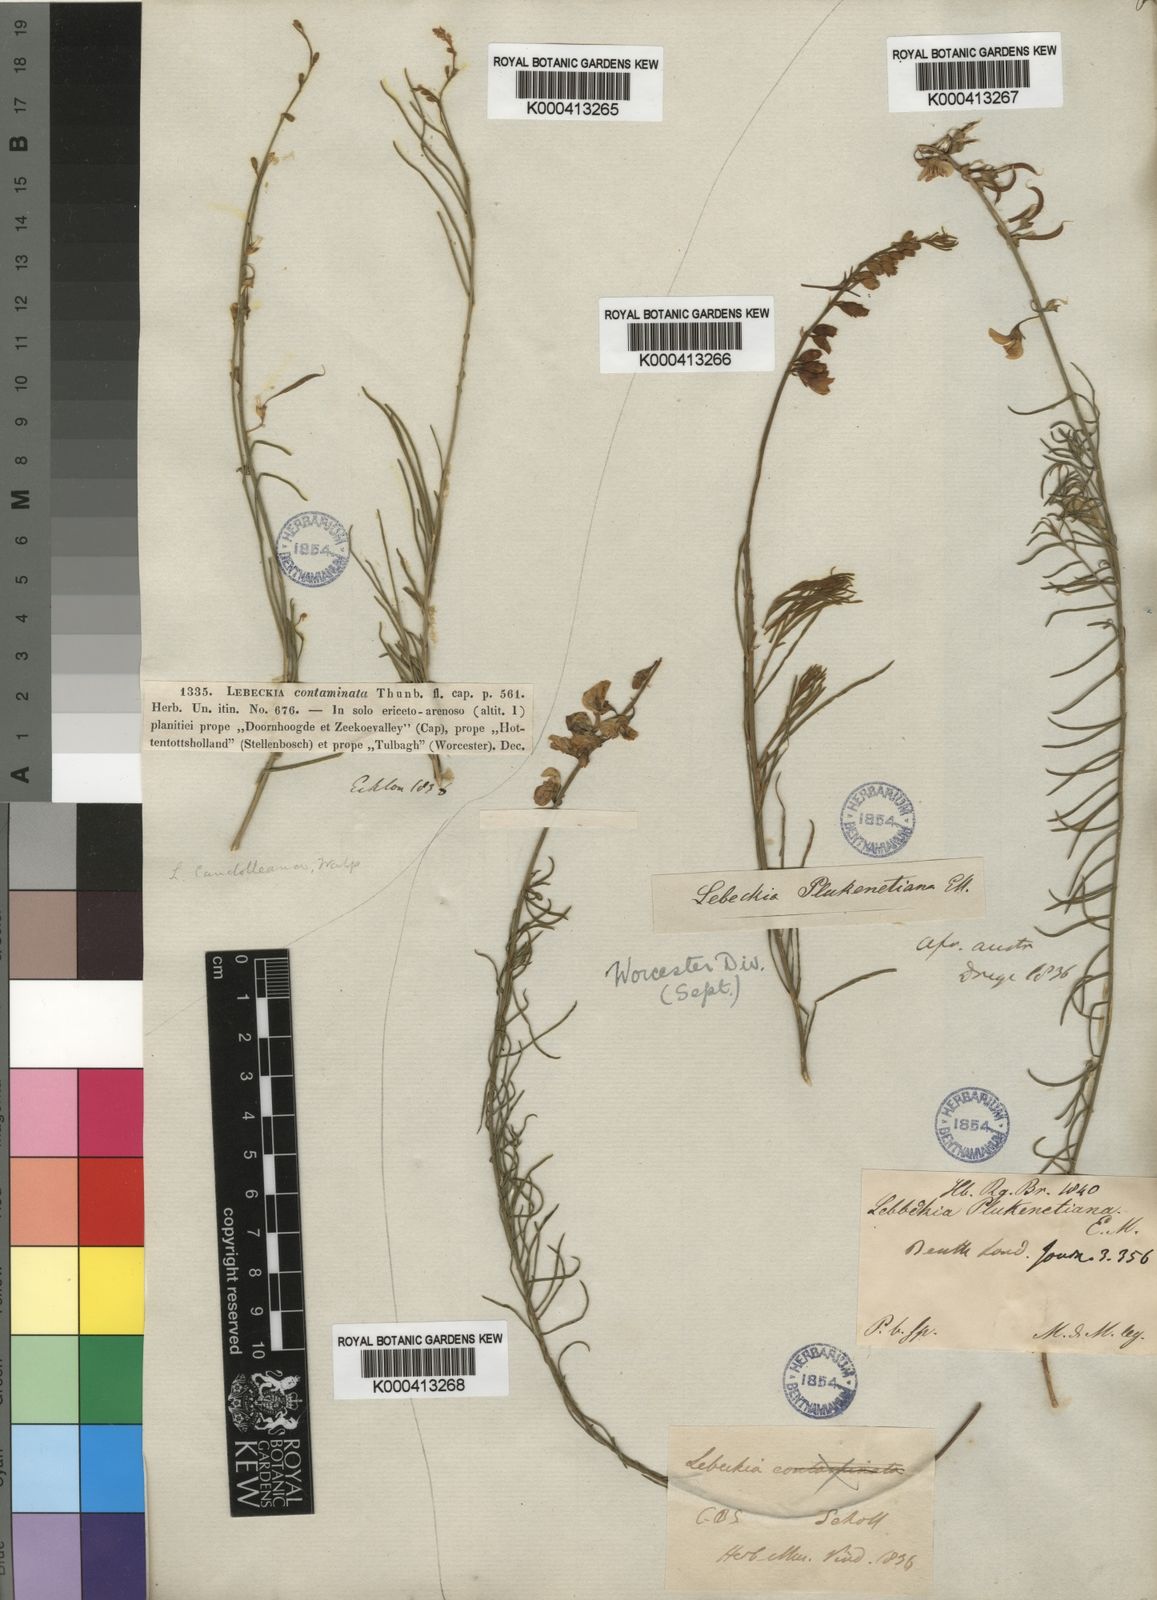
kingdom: Plantae
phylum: Tracheophyta
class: Magnoliopsida
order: Fabales
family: Fabaceae
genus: Lebeckia
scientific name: Lebeckia plukenetiana
